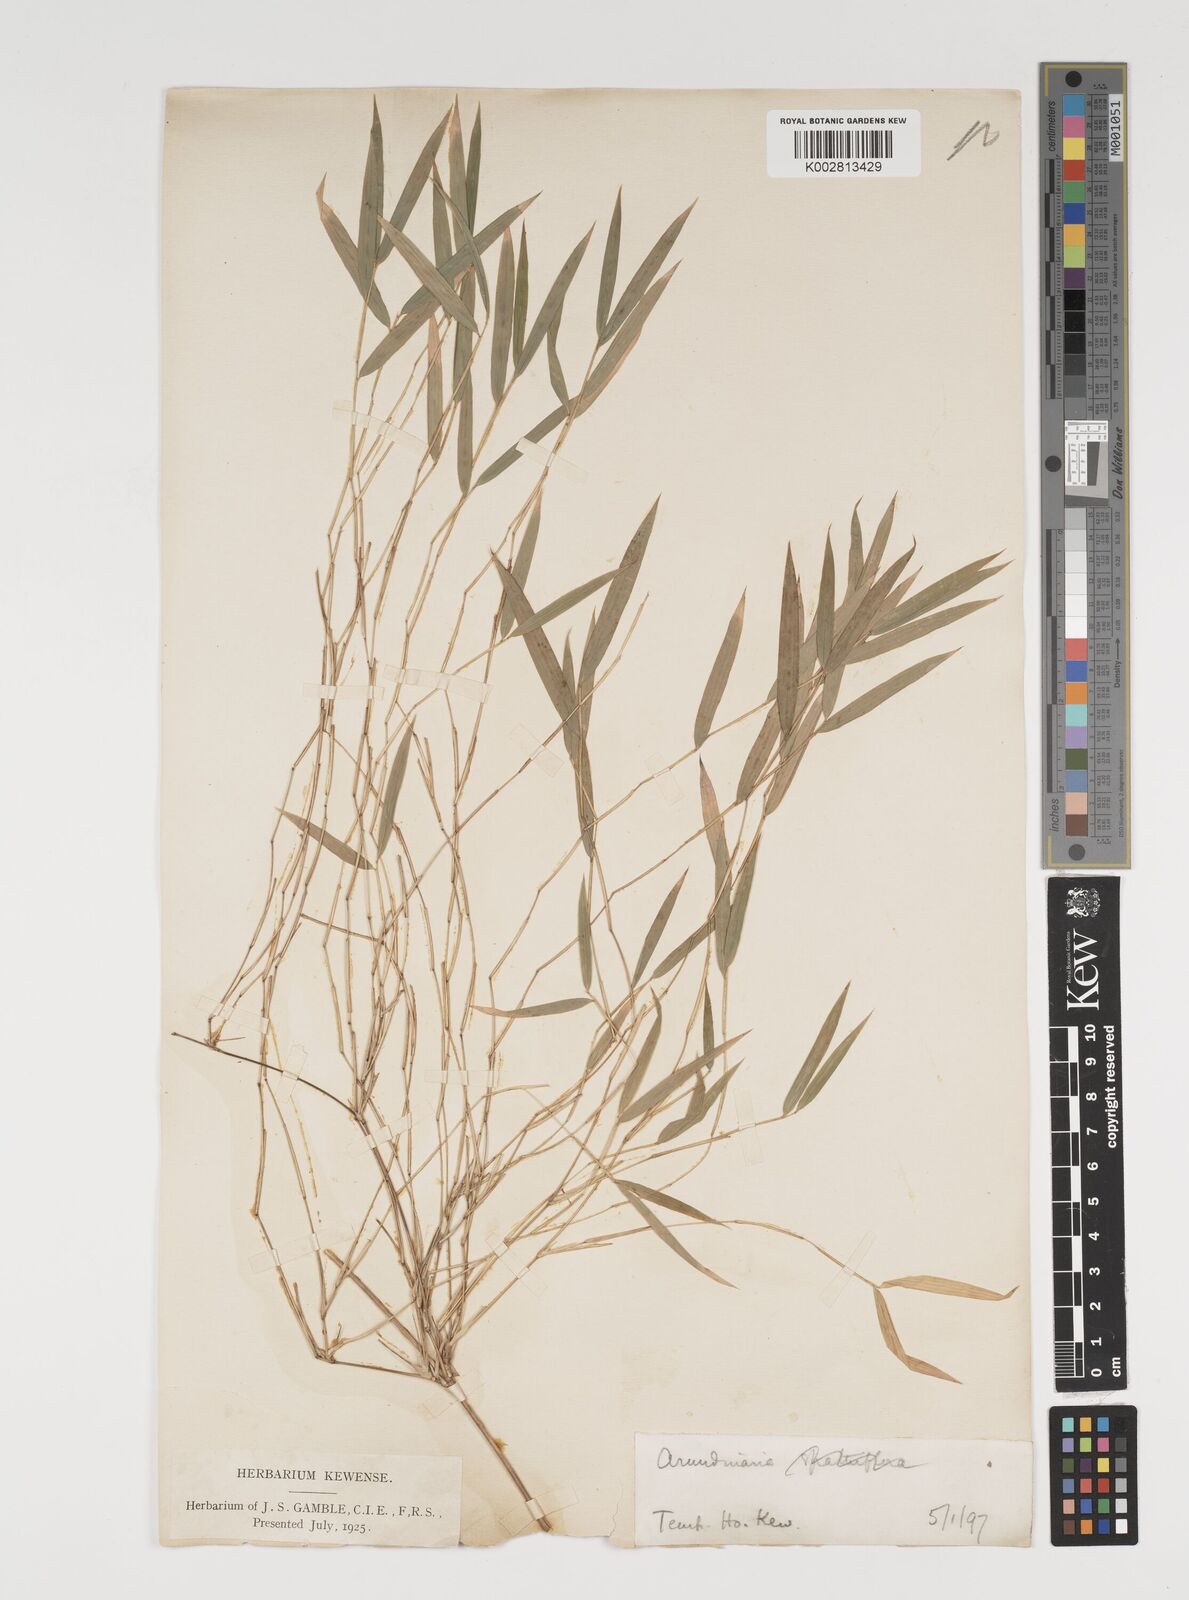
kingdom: Plantae
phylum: Tracheophyta
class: Liliopsida
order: Poales
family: Poaceae
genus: Thamnocalamus
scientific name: Thamnocalamus spathiflorus
